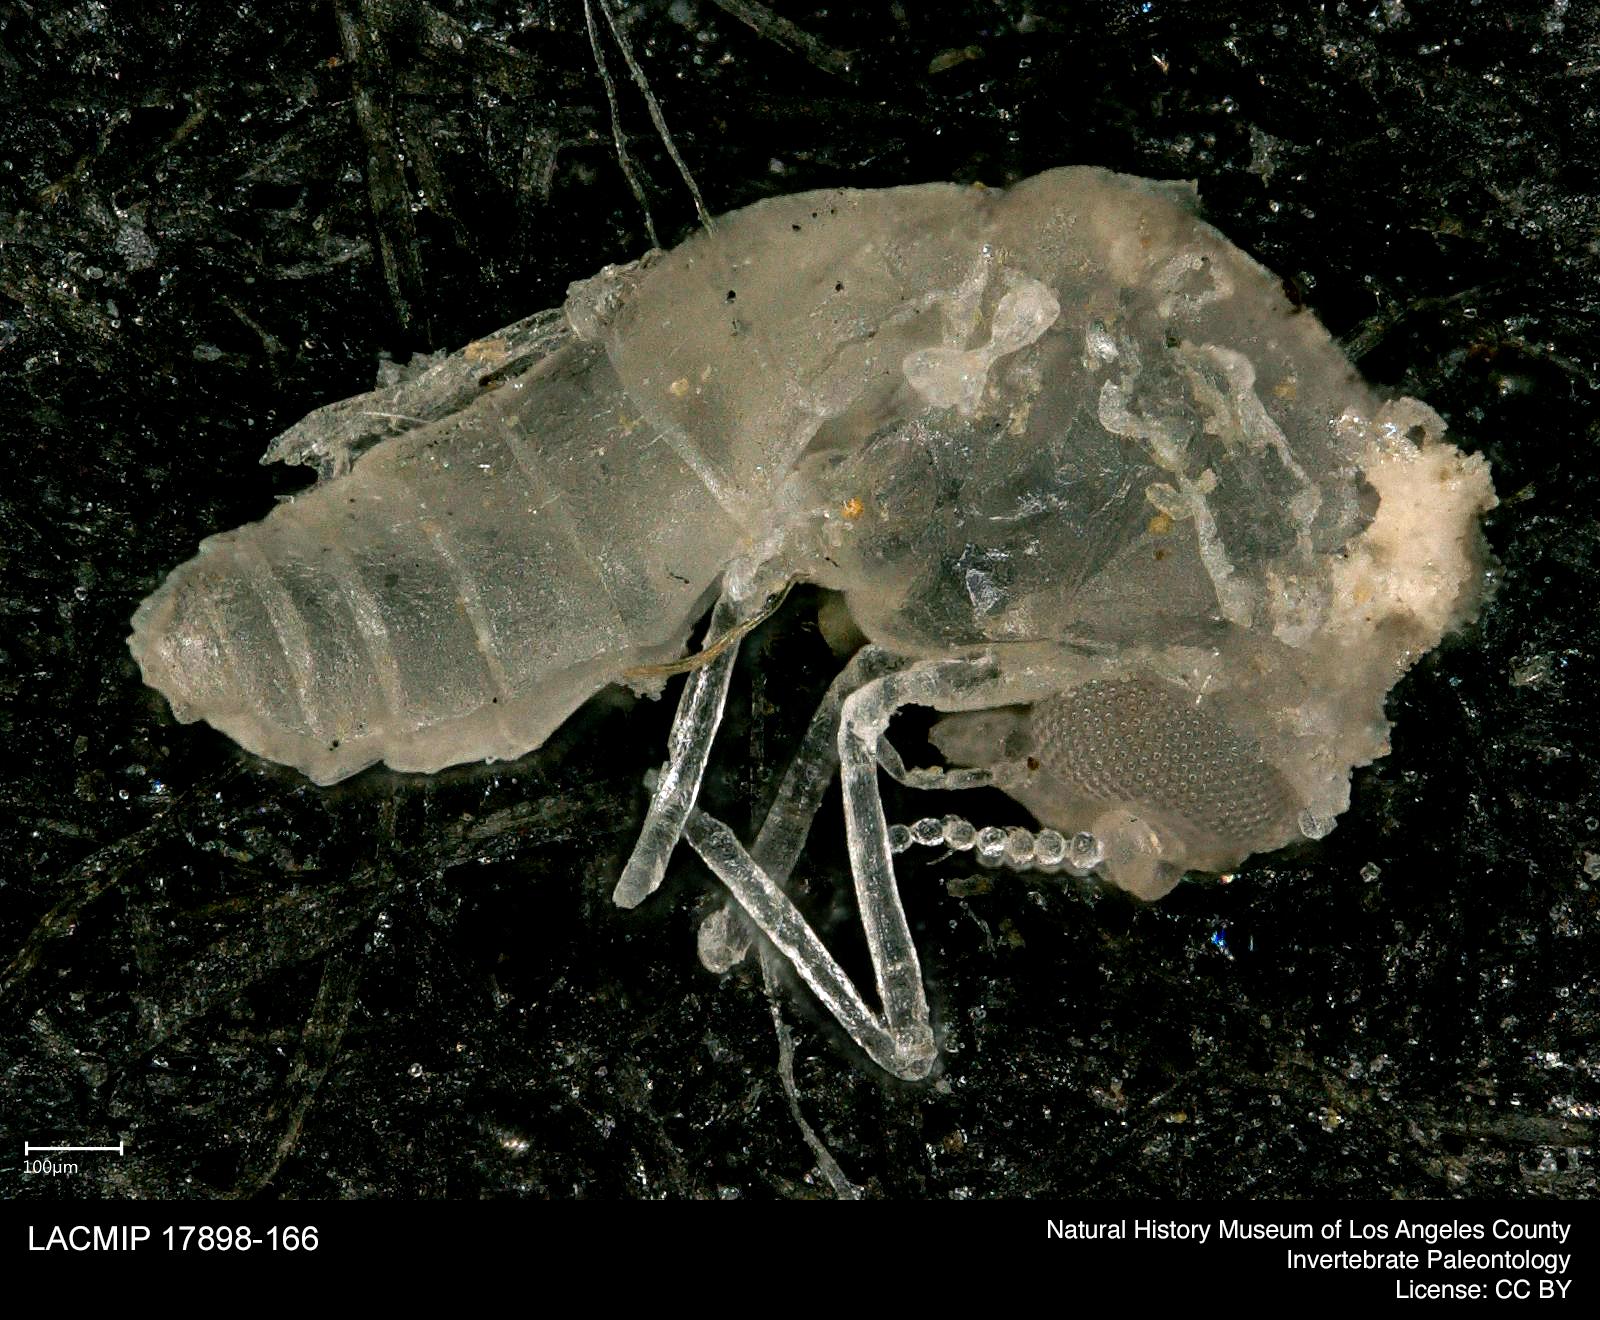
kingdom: Animalia
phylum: Arthropoda
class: Insecta
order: Diptera
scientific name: Diptera
